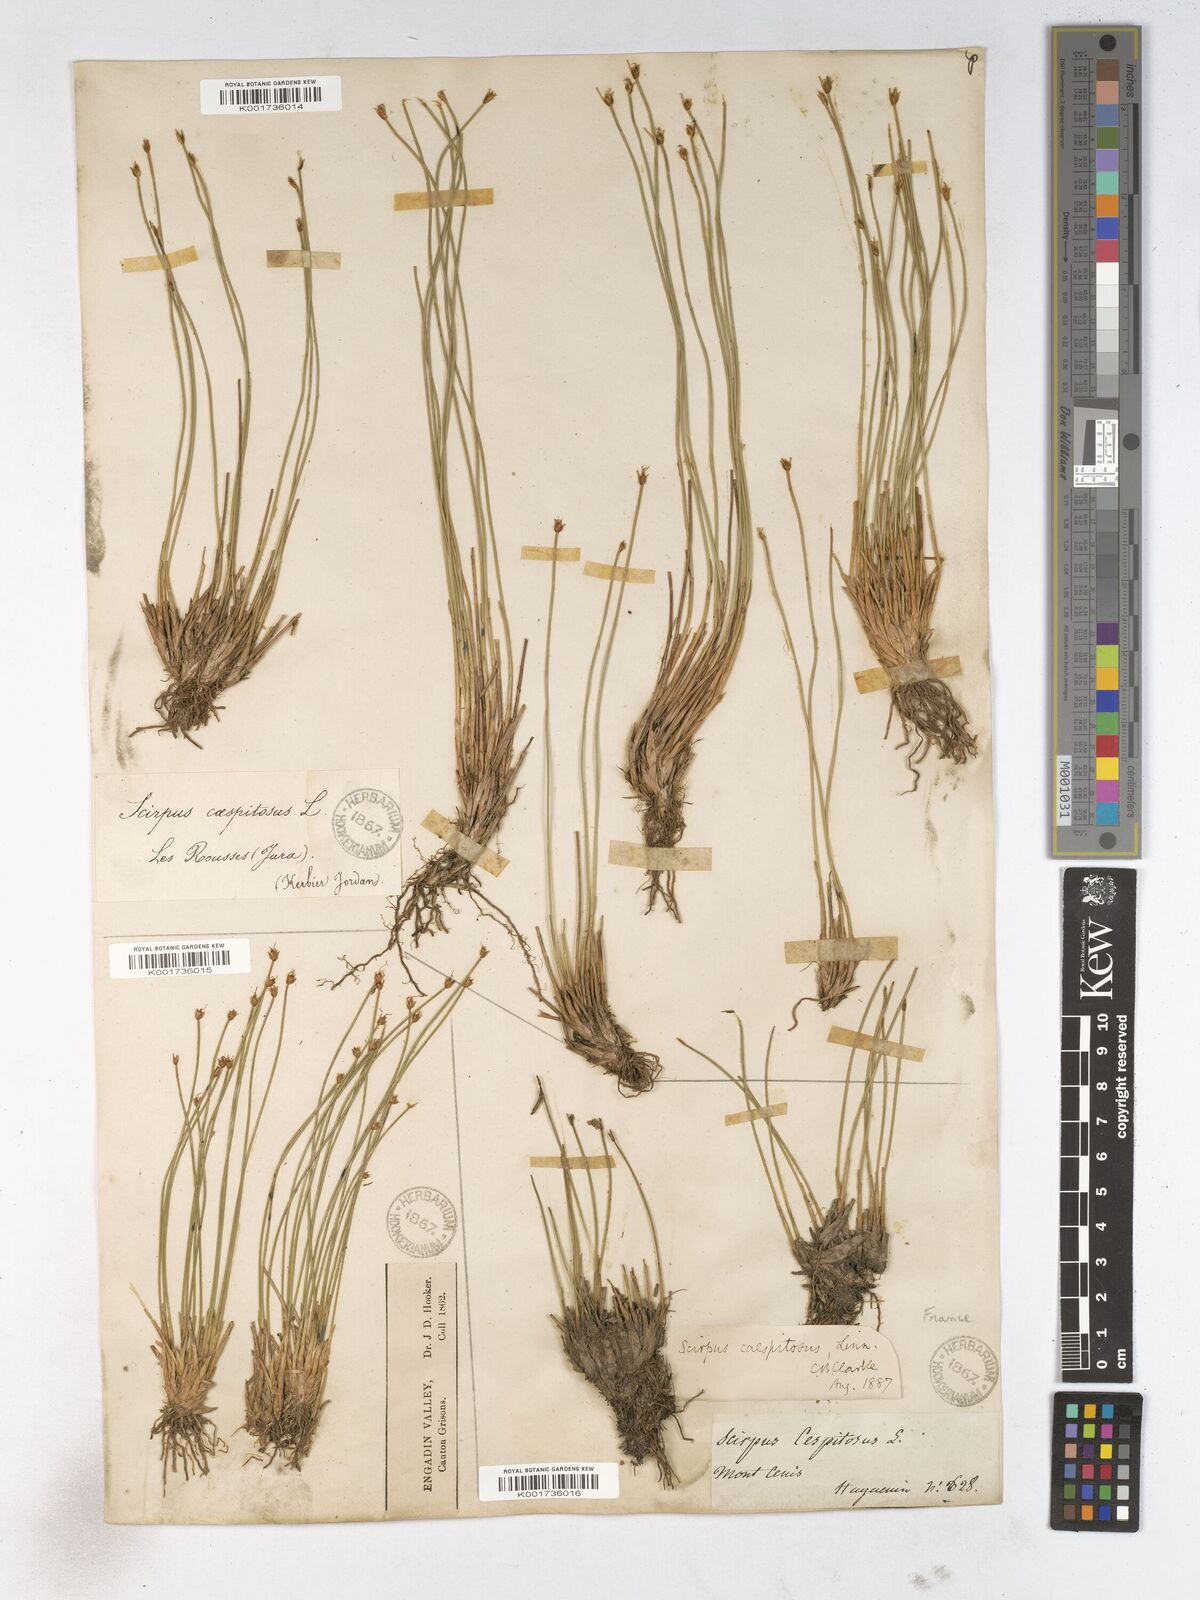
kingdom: Plantae
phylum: Tracheophyta
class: Liliopsida
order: Poales
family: Cyperaceae
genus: Trichophorum
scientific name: Trichophorum cespitosum
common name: Cespitose bulrush
